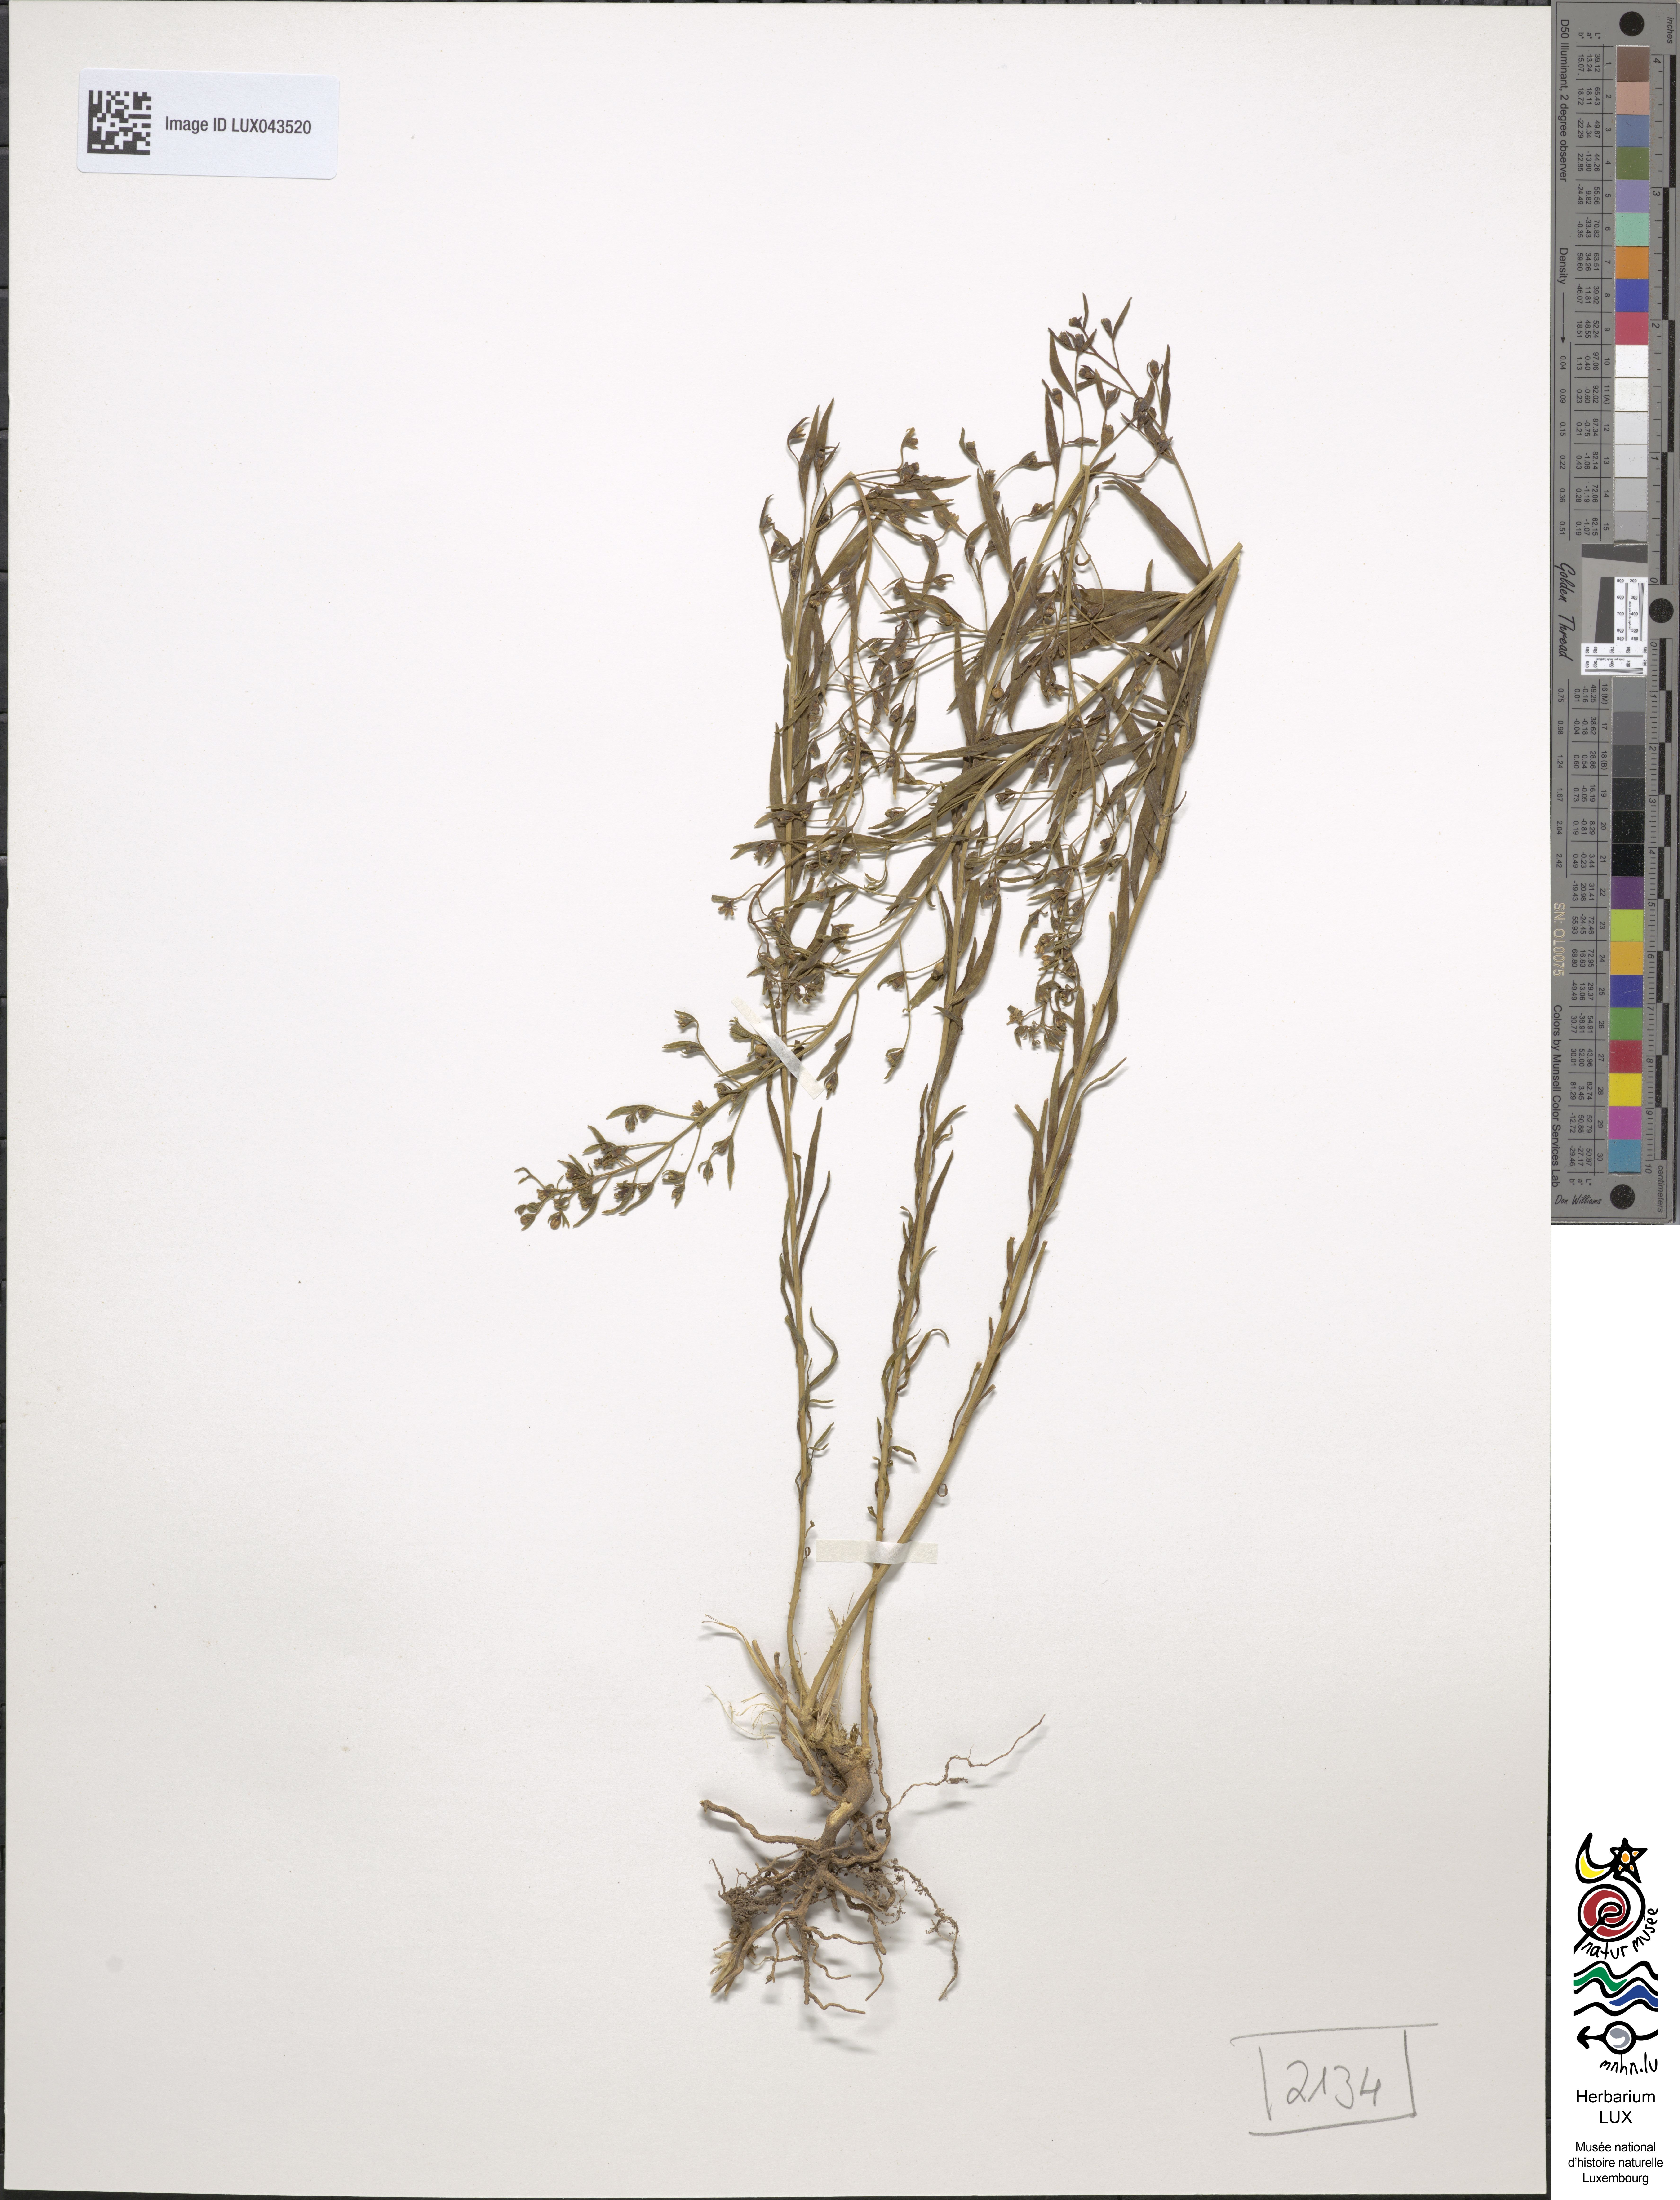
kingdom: Plantae
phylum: Tracheophyta
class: Magnoliopsida
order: Santalales
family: Thesiaceae
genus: Thesium
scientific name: Thesium bavarum
